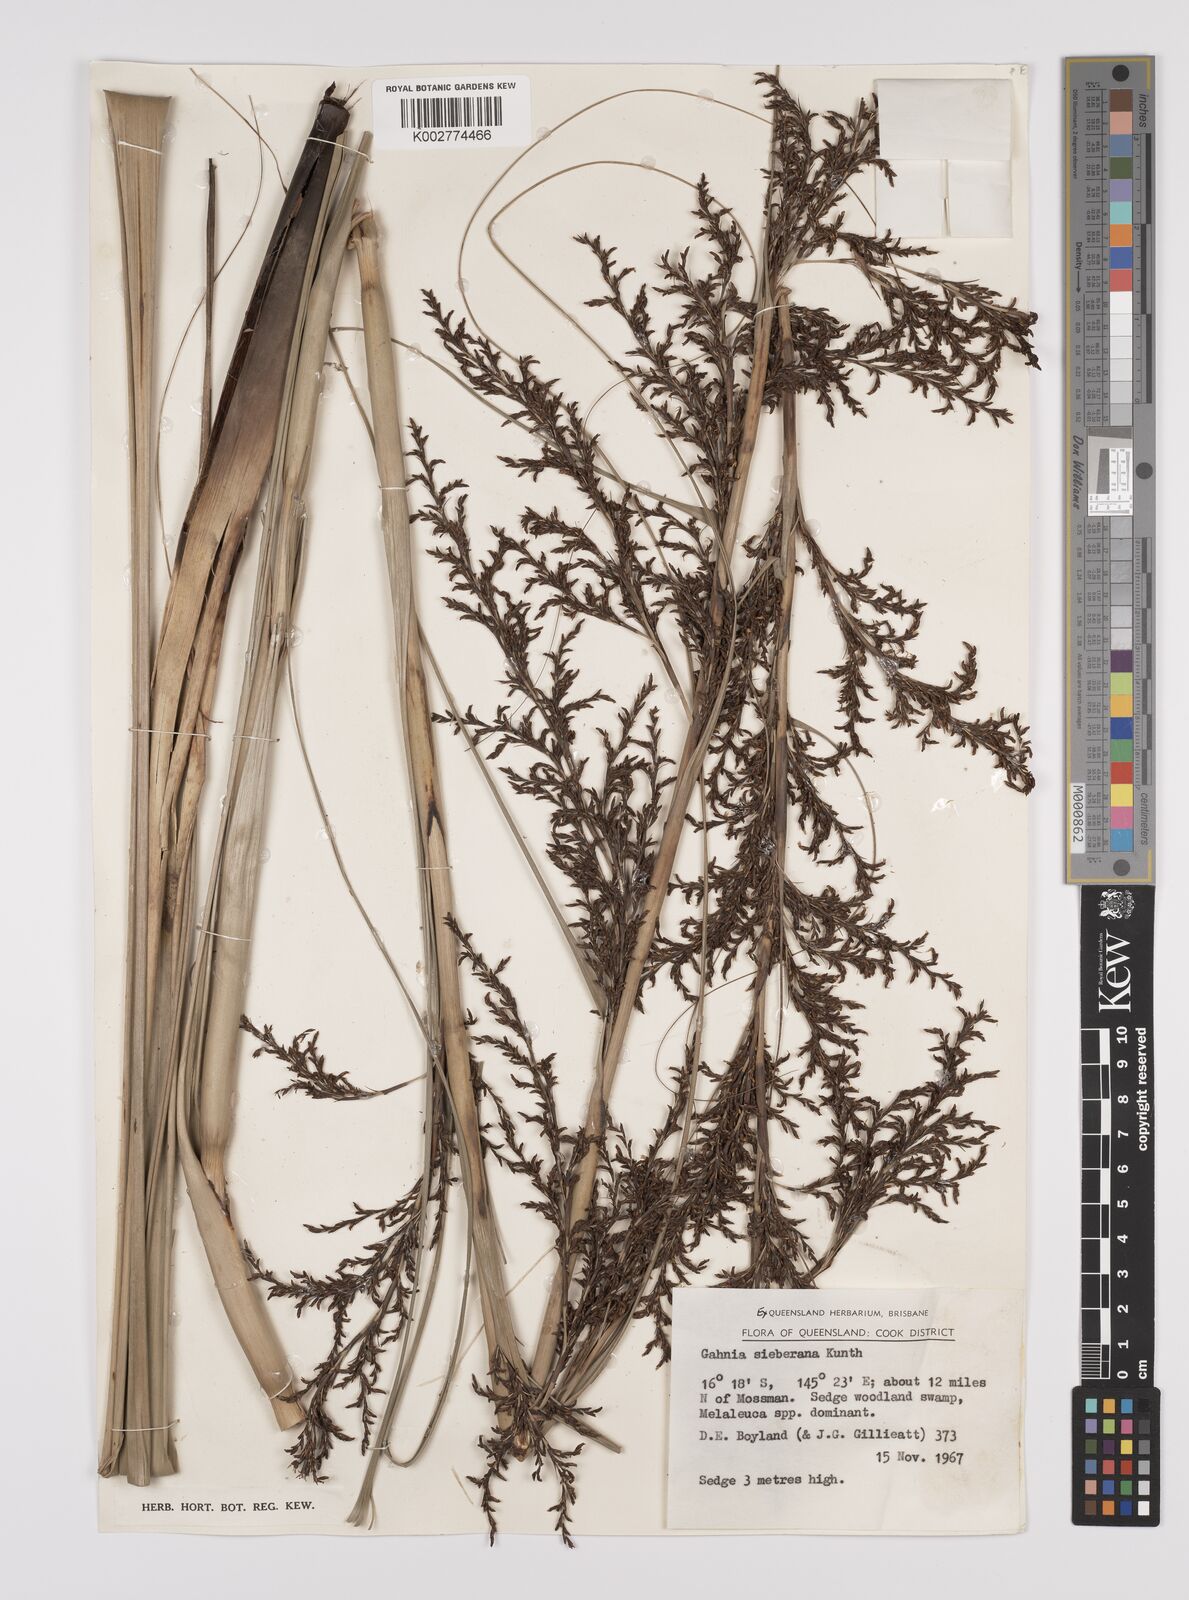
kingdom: Plantae
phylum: Tracheophyta
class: Liliopsida
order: Poales
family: Cyperaceae
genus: Gahnia
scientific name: Gahnia sieberiana
